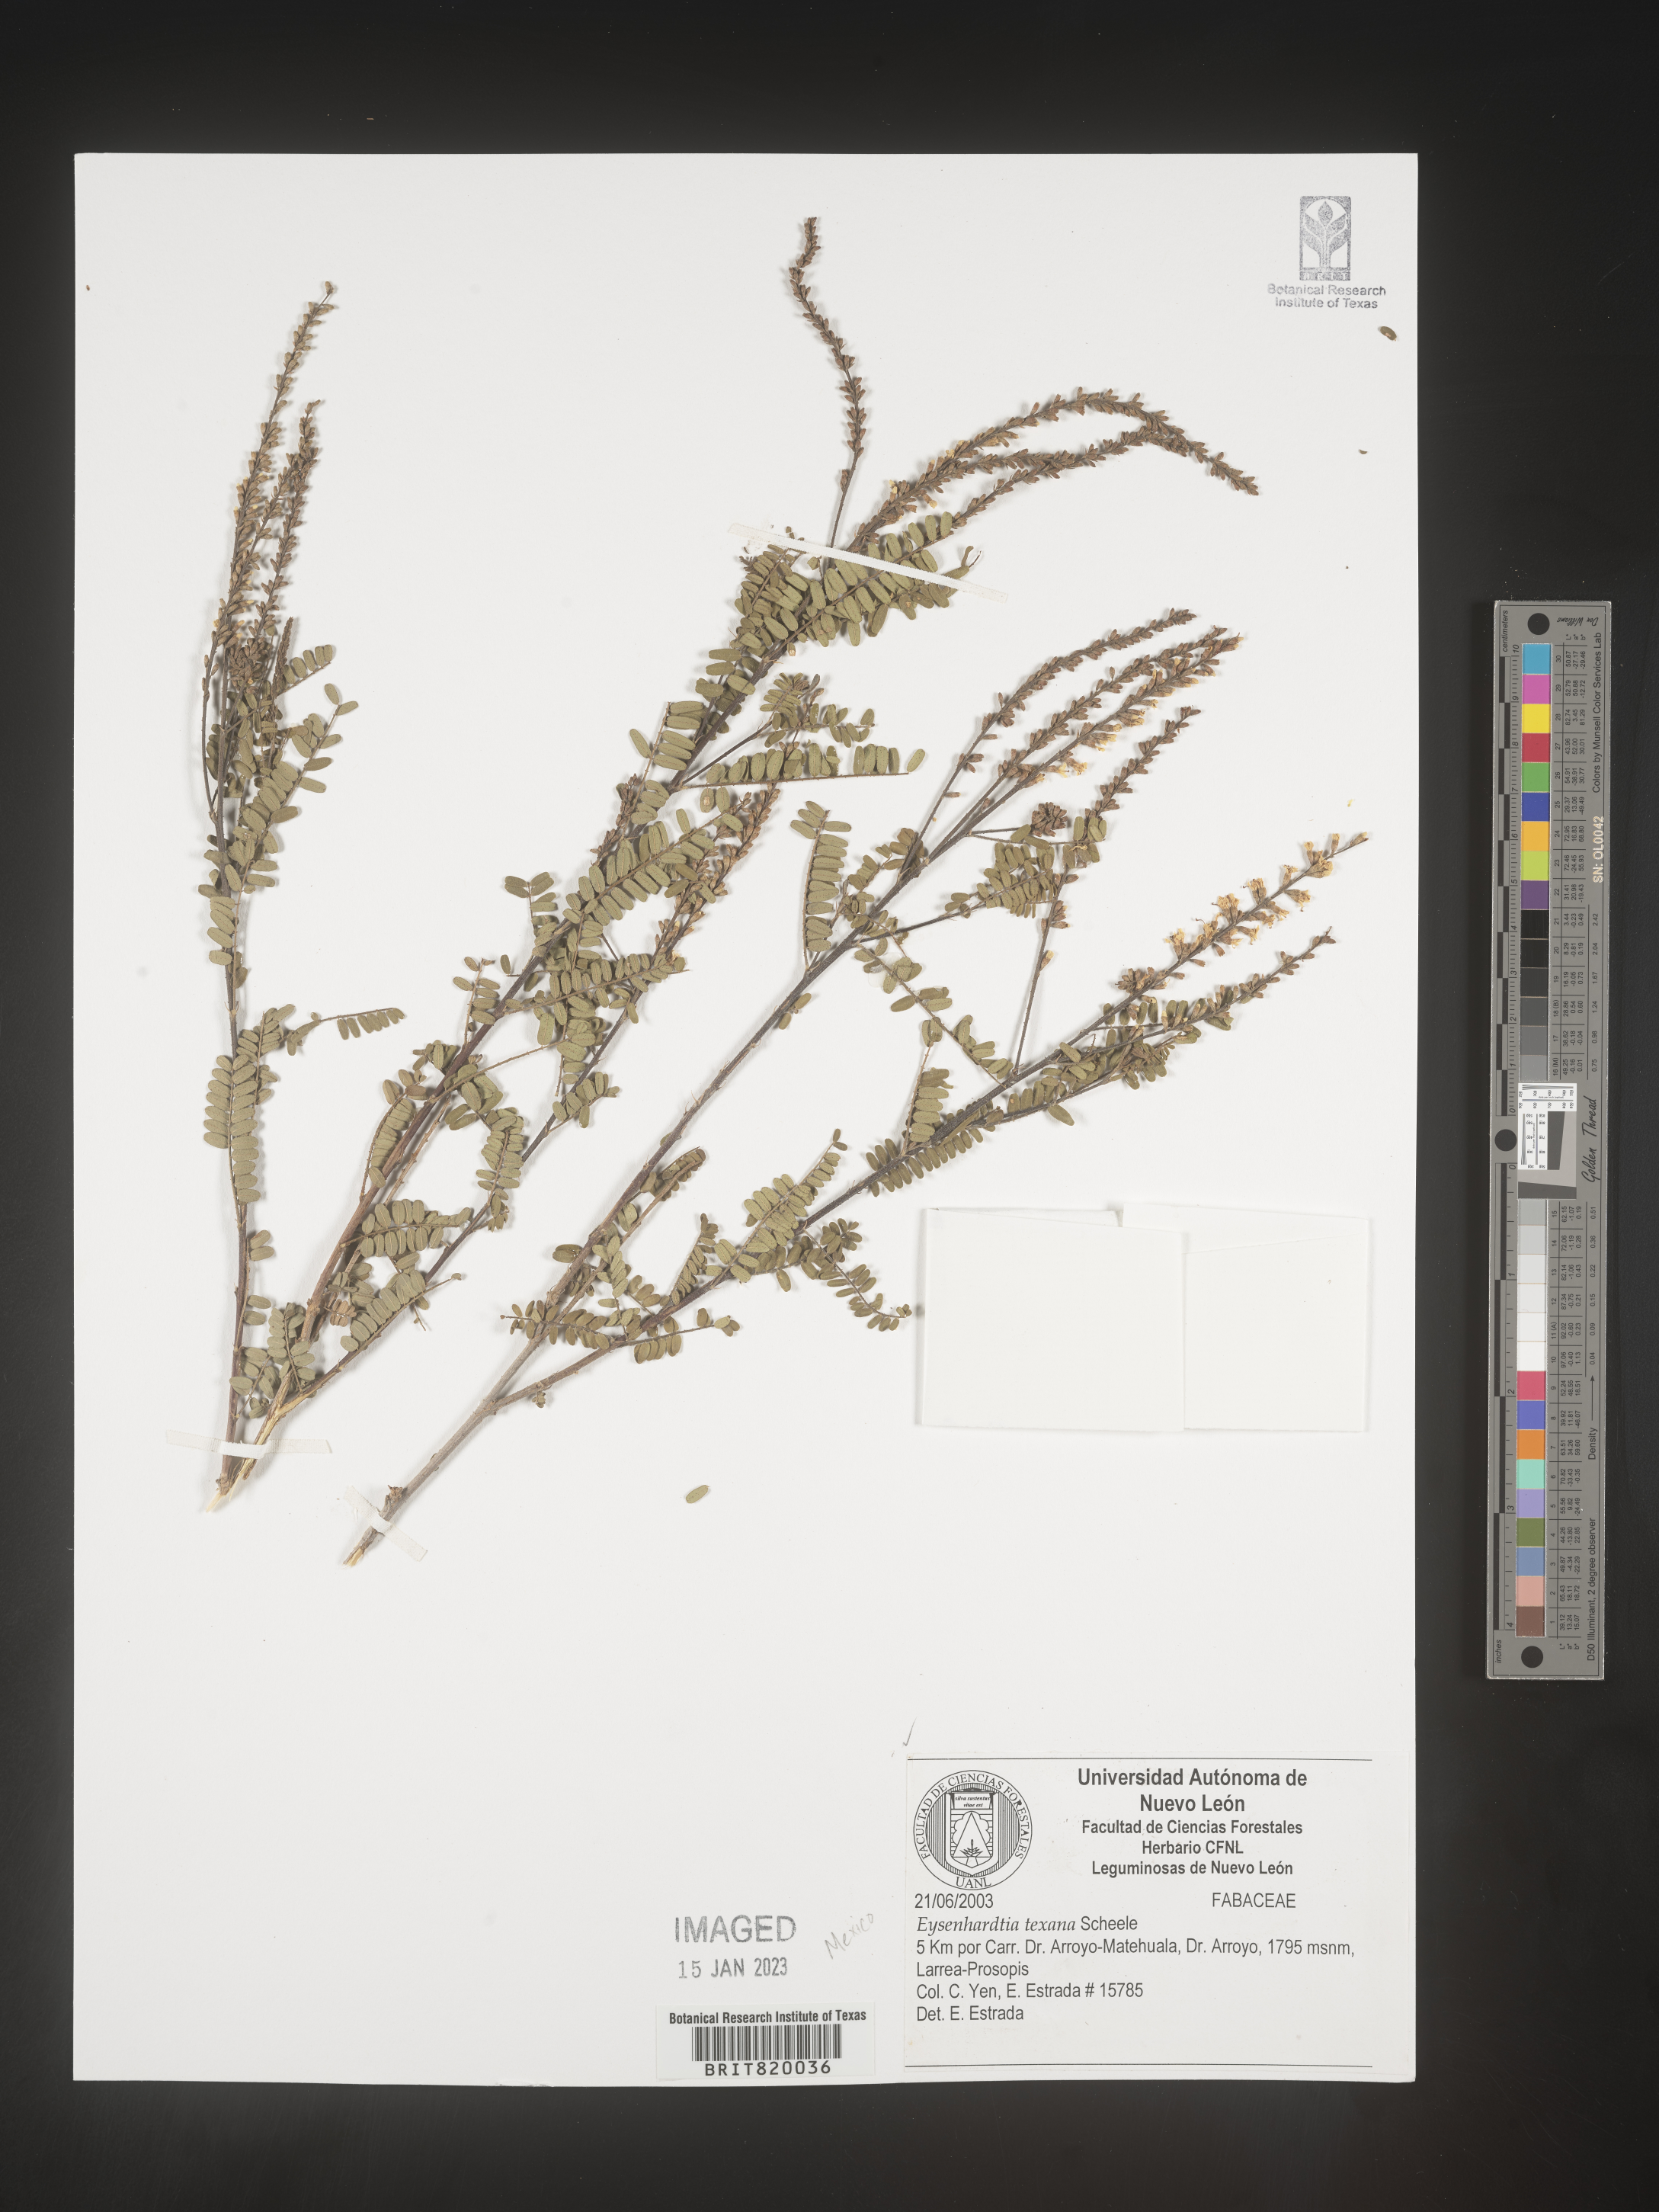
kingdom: Plantae
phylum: Tracheophyta
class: Magnoliopsida
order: Fabales
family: Fabaceae
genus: Eysenhardtia
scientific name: Eysenhardtia
